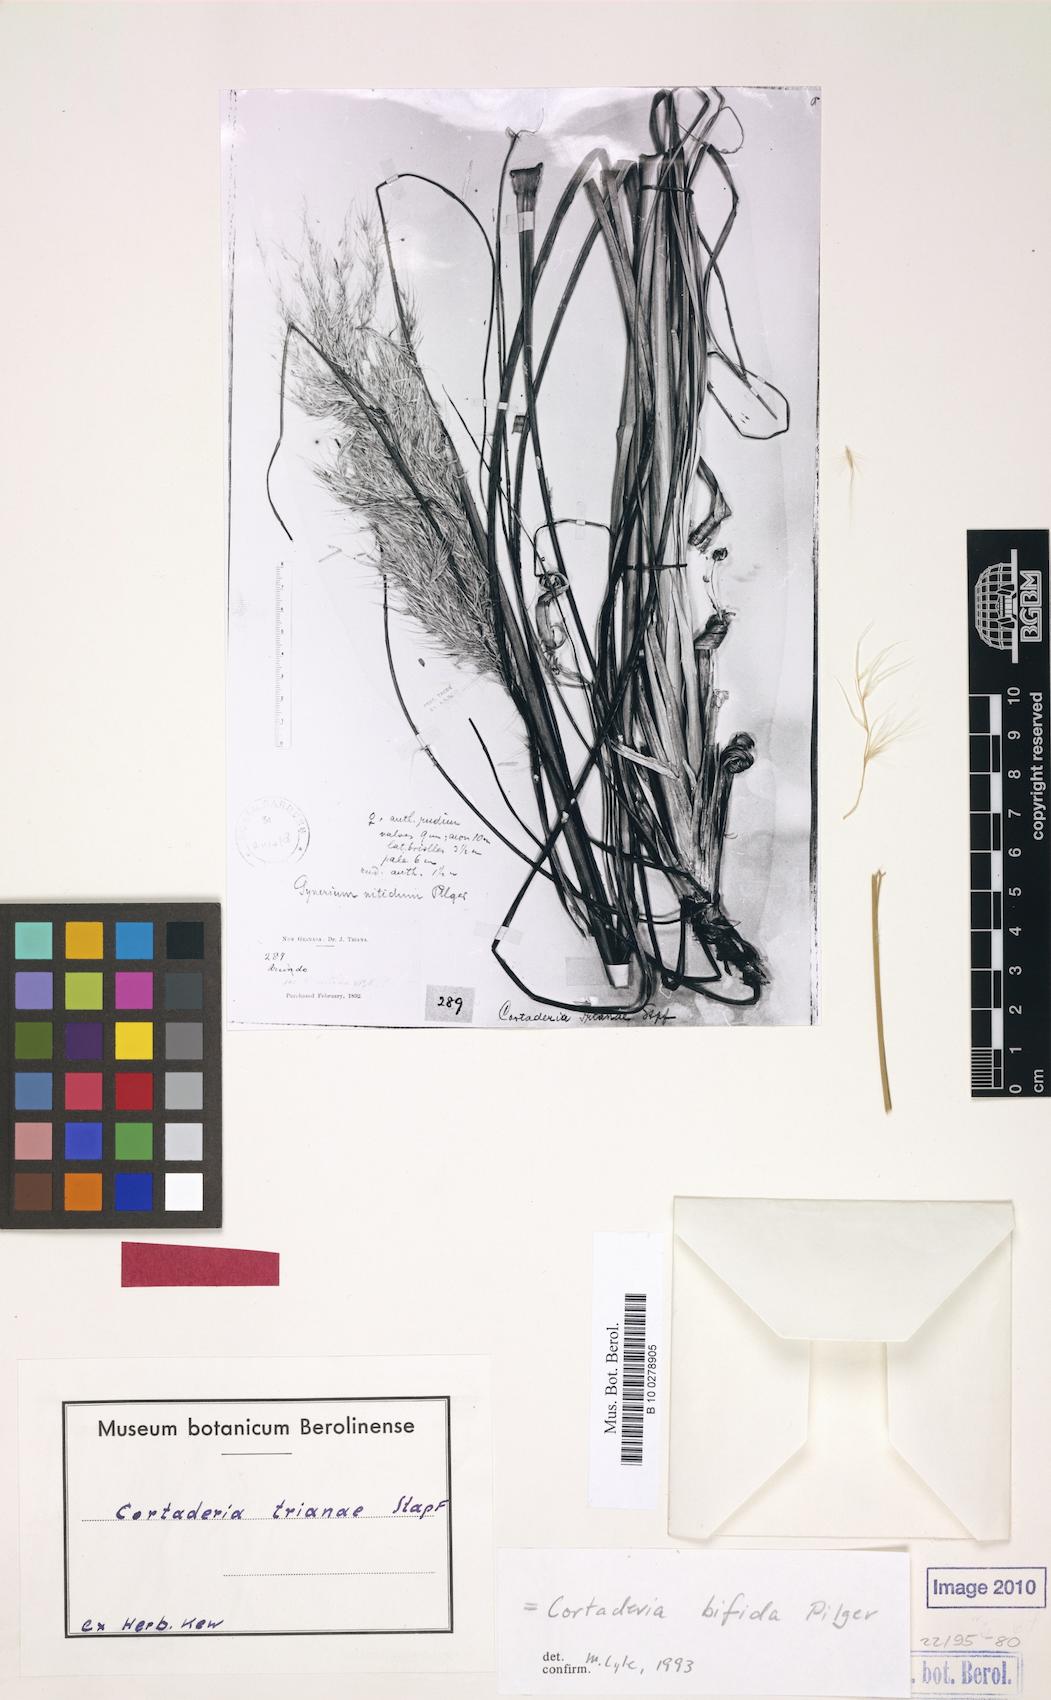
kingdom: Plantae
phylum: Tracheophyta
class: Liliopsida
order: Poales
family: Poaceae
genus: Cortaderia
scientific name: Cortaderia bifida
